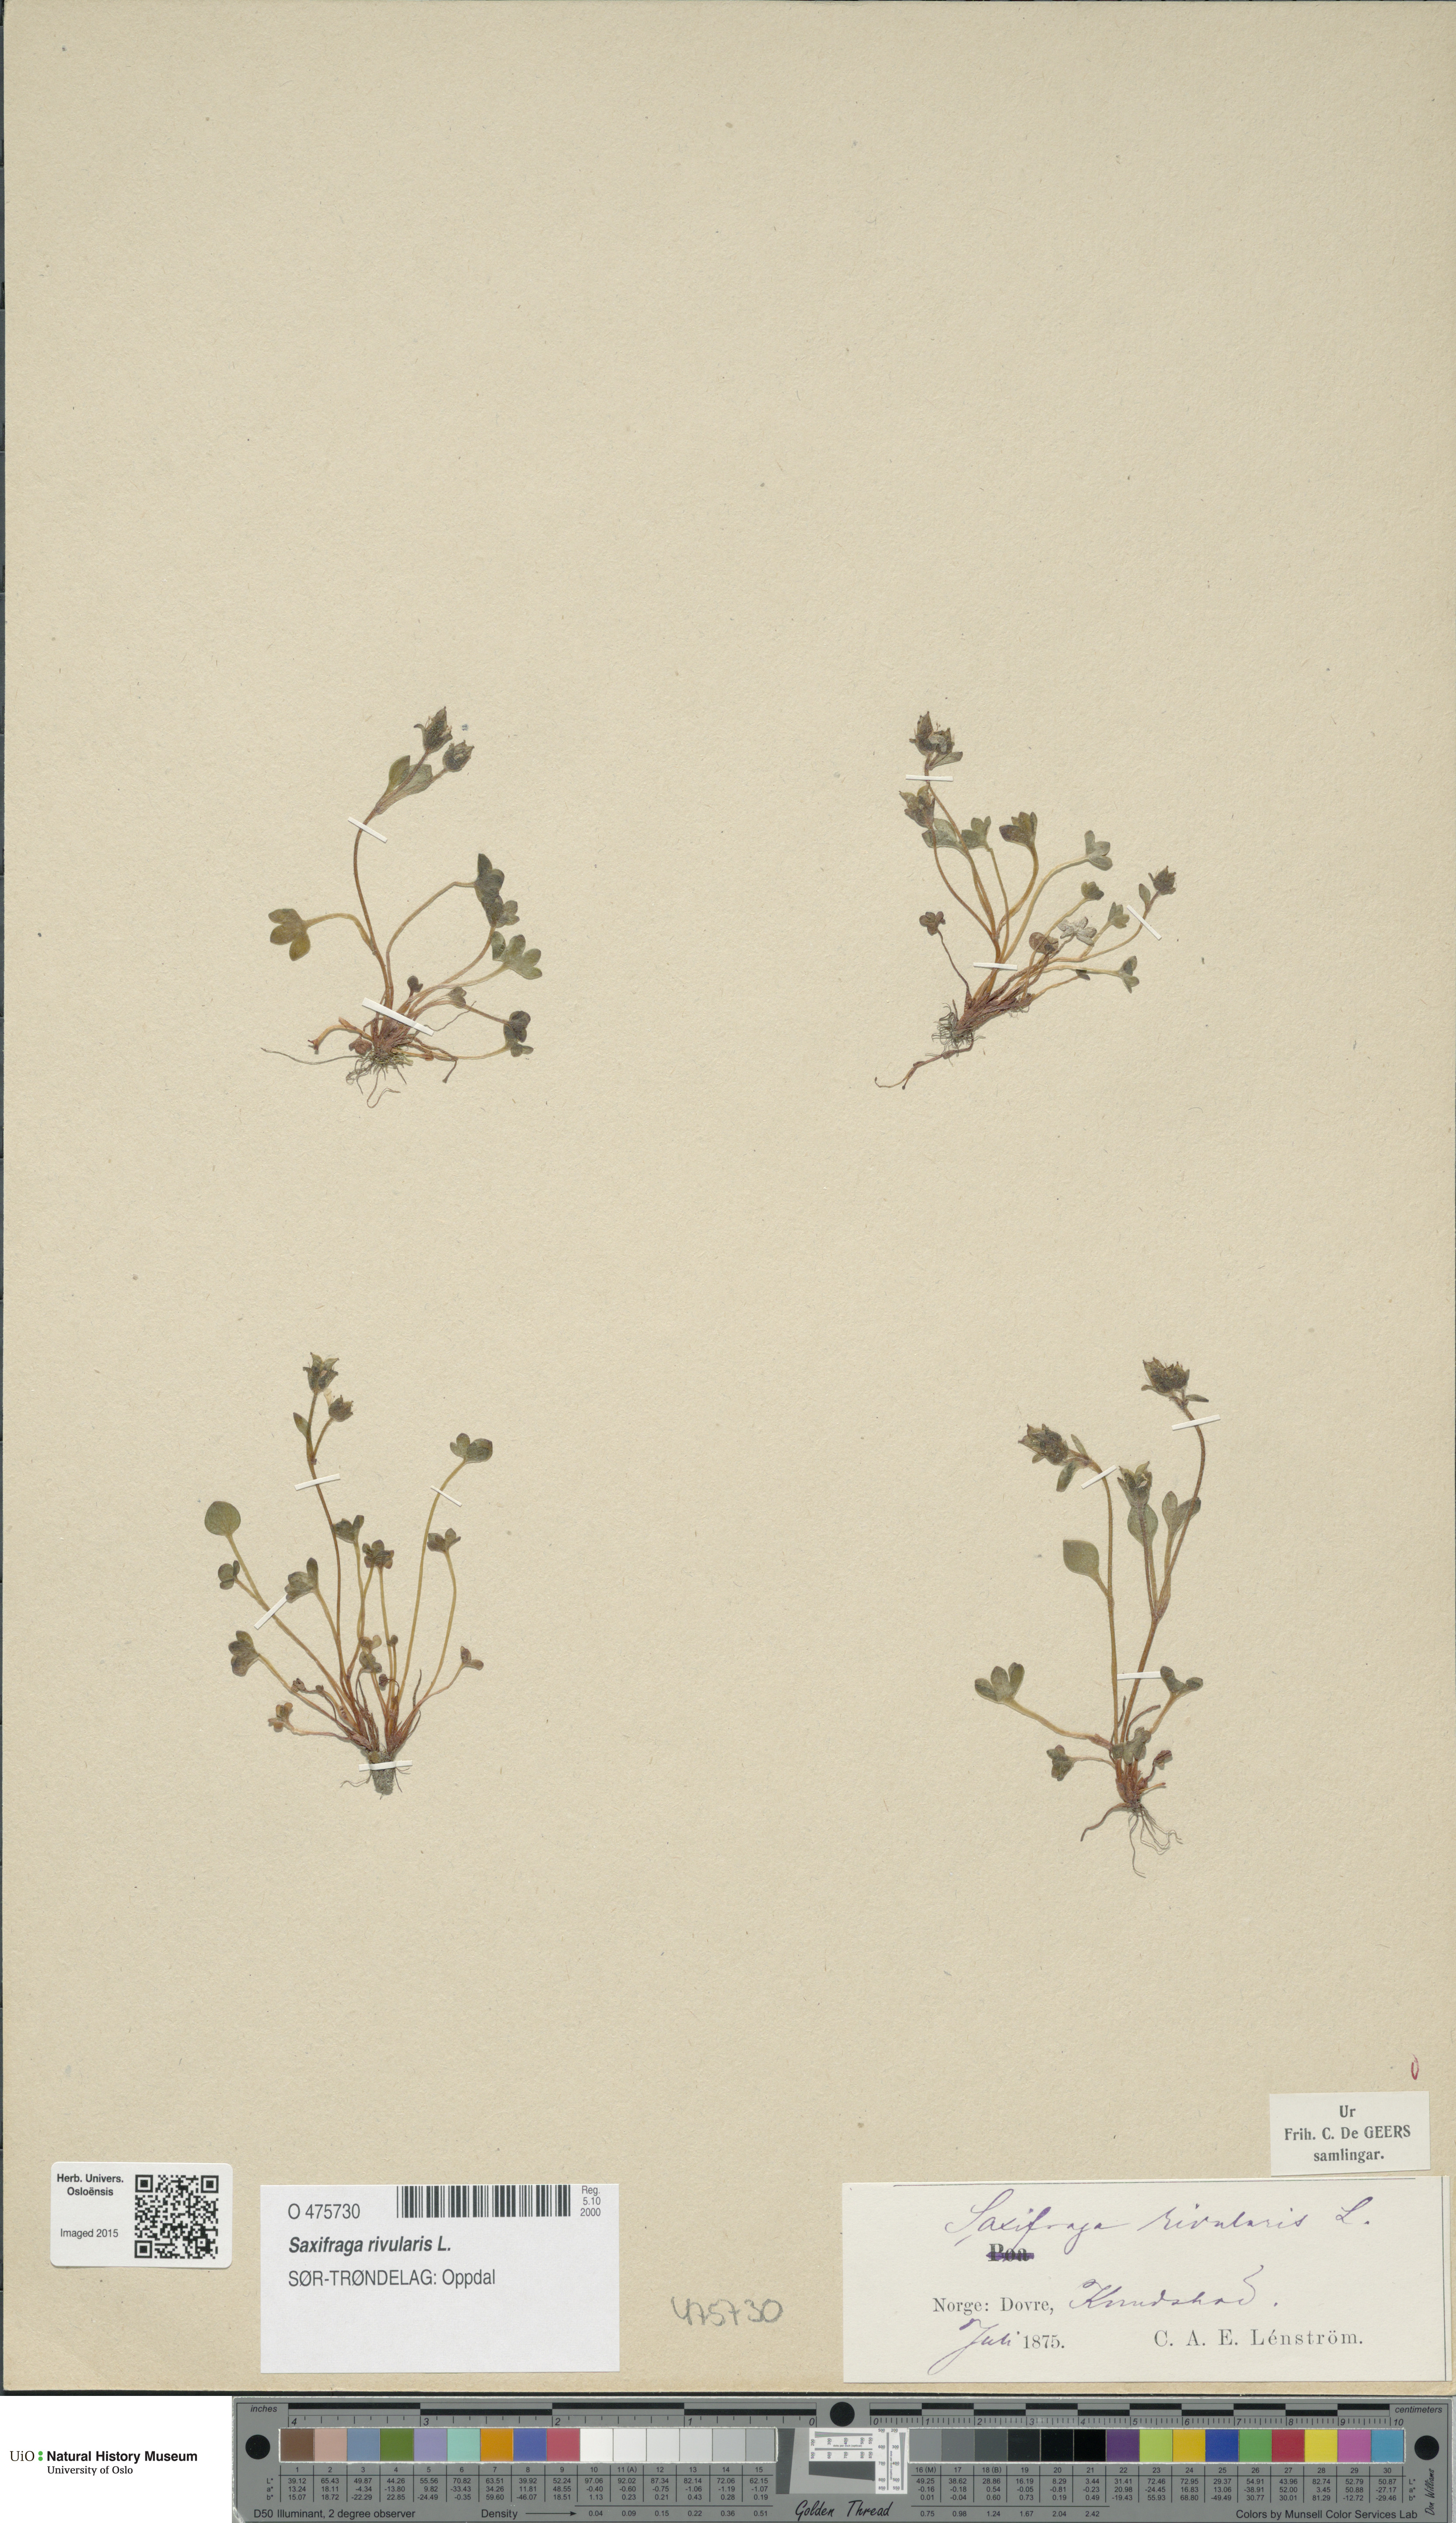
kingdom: Plantae
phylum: Tracheophyta
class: Magnoliopsida
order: Saxifragales
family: Saxifragaceae
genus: Saxifraga
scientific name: Saxifraga rivularis
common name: Highland saxifrage
